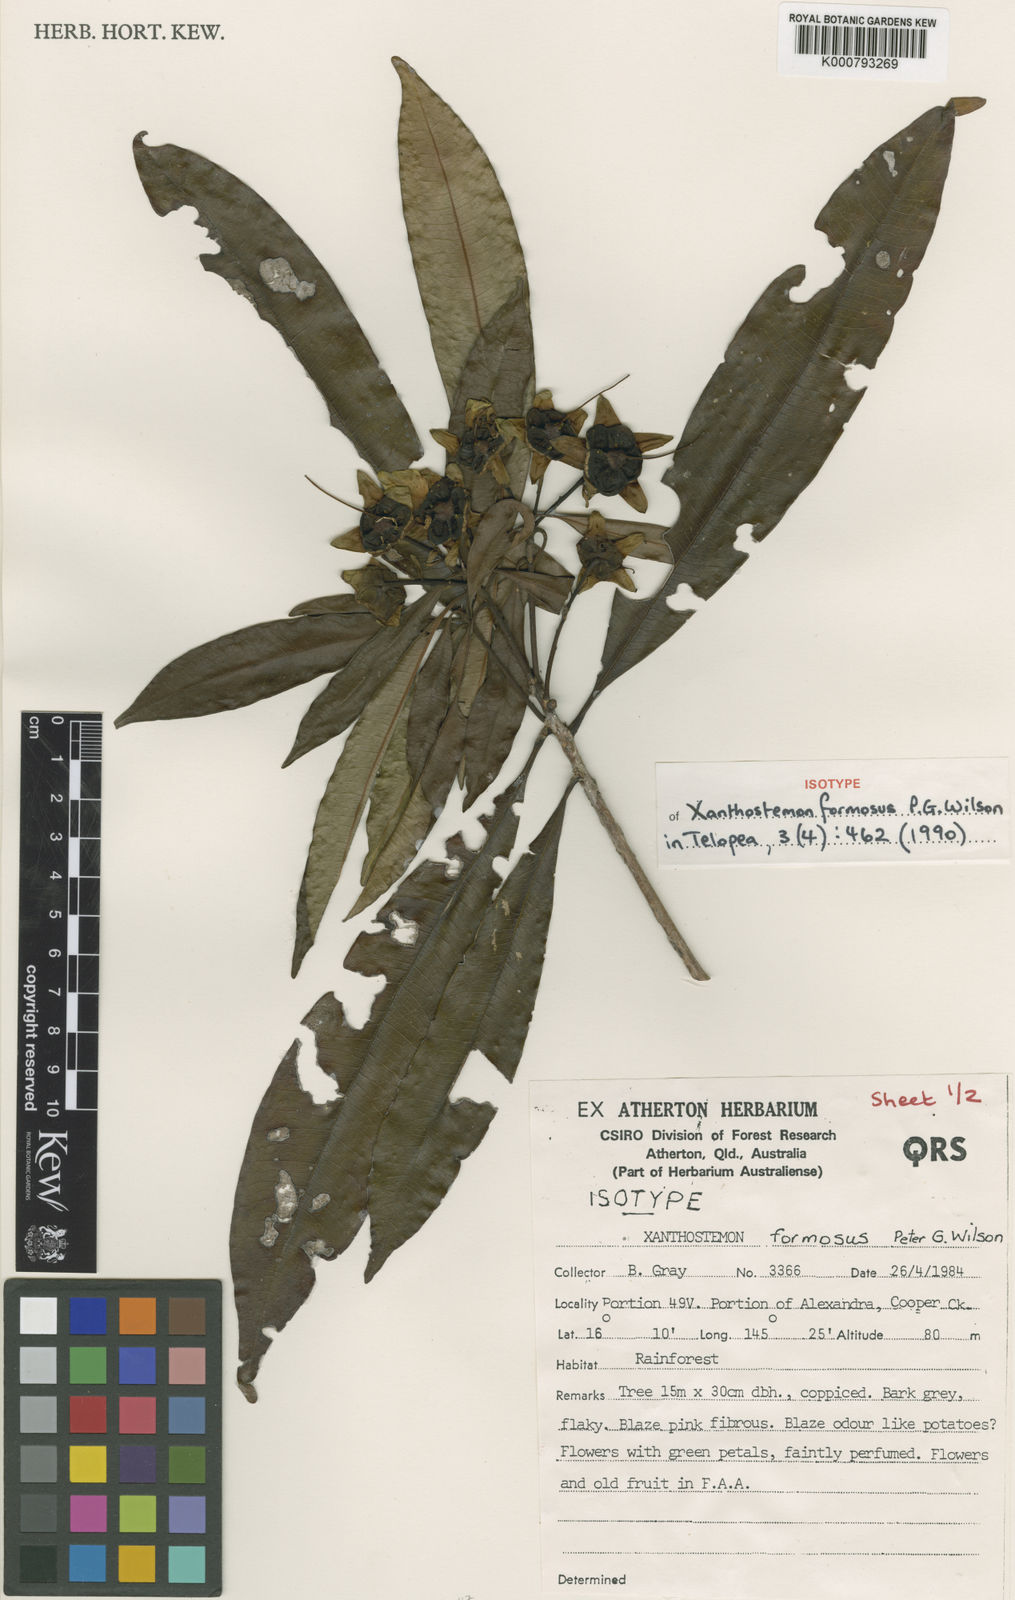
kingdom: Plantae
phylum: Tracheophyta
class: Magnoliopsida
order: Myrtales
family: Myrtaceae
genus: Xanthostemon
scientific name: Xanthostemon formosus
